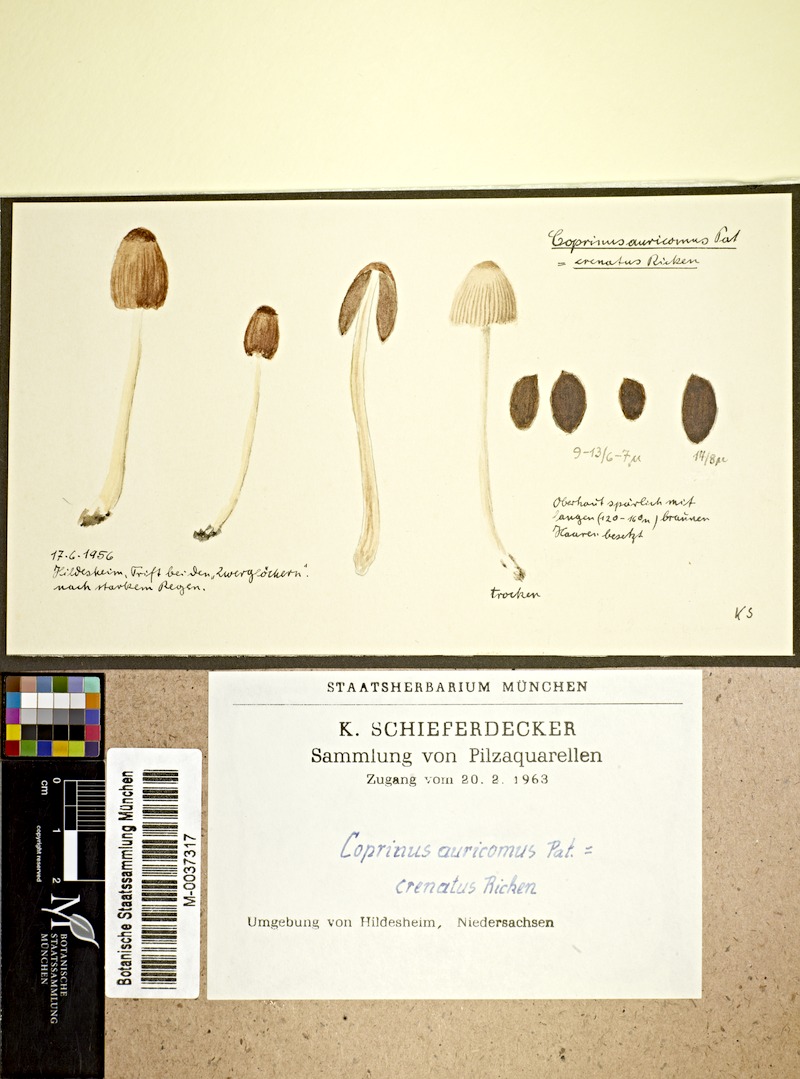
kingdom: Fungi
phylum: Basidiomycota
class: Agaricomycetes
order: Agaricales
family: Psathyrellaceae
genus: Parasola
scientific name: Parasola auricoma
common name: Goldenhaired inkcap
